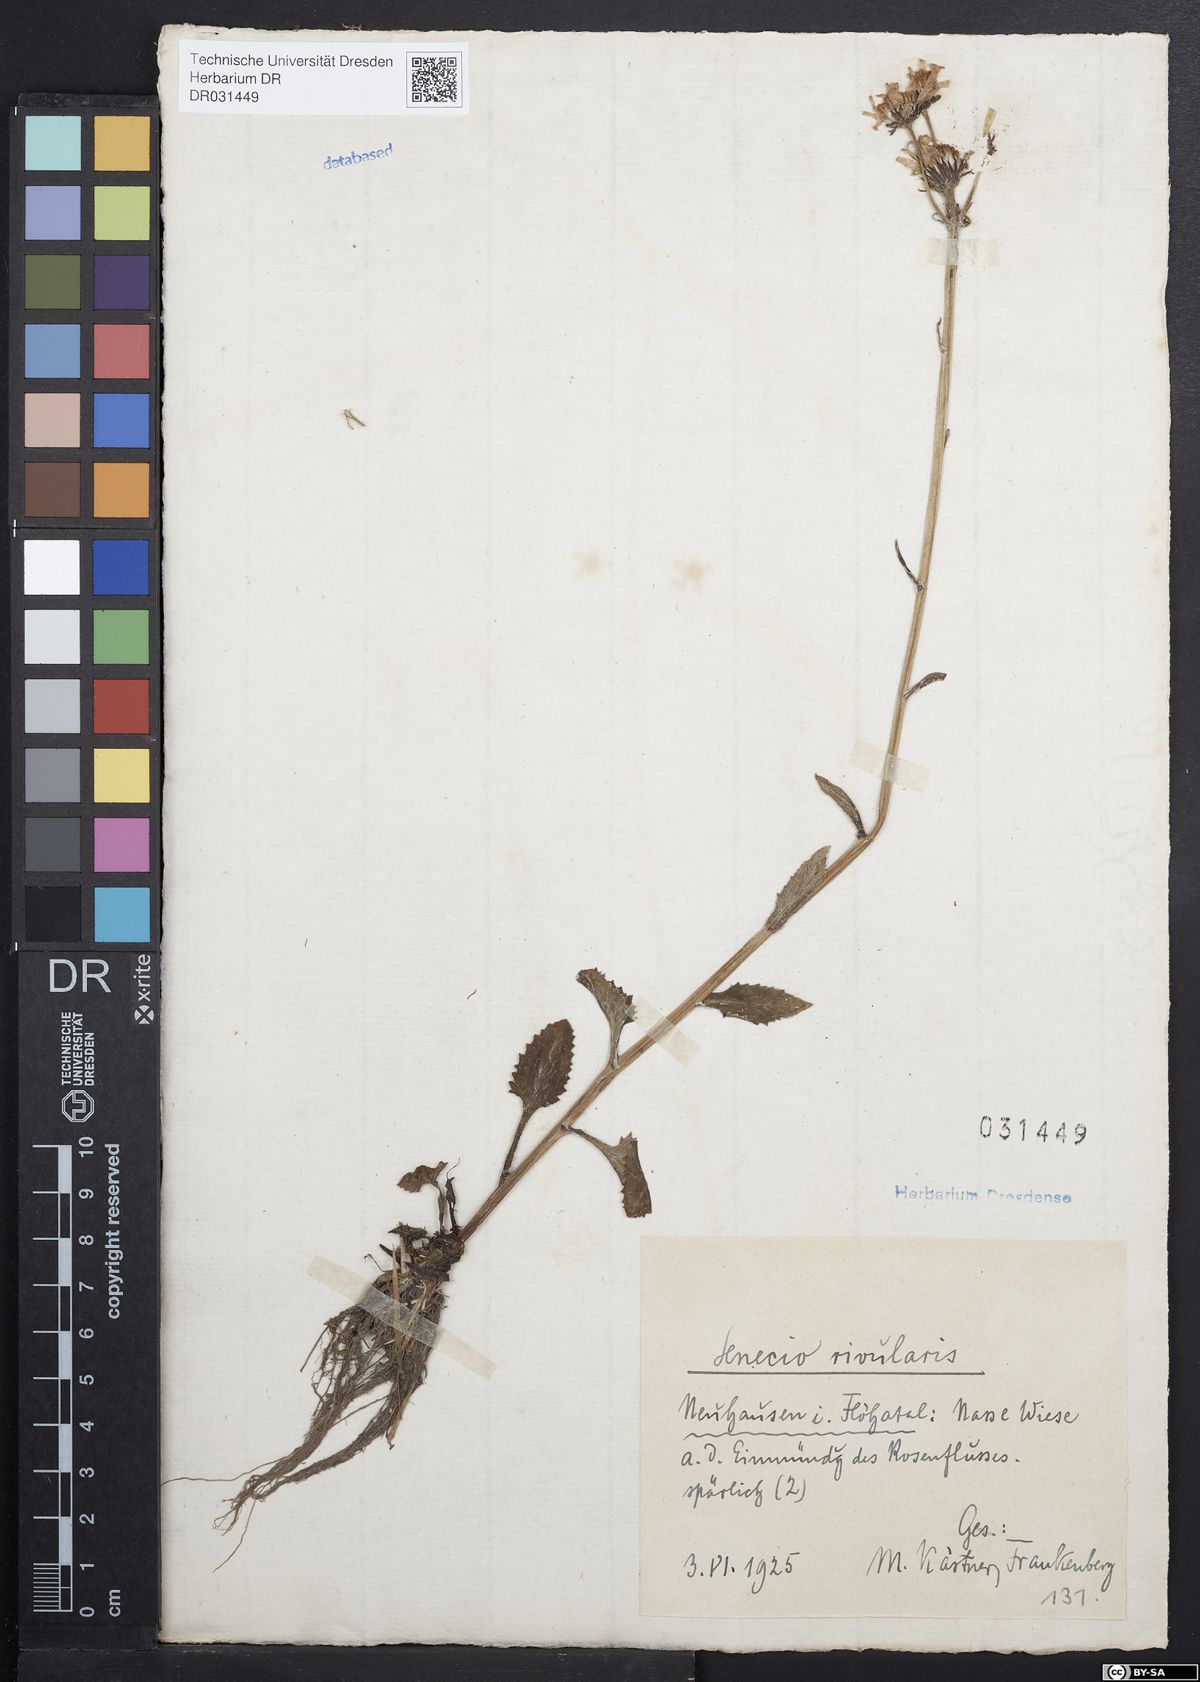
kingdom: Plantae
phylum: Tracheophyta
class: Magnoliopsida
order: Asterales
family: Asteraceae
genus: Tephroseris
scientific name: Tephroseris crispa
